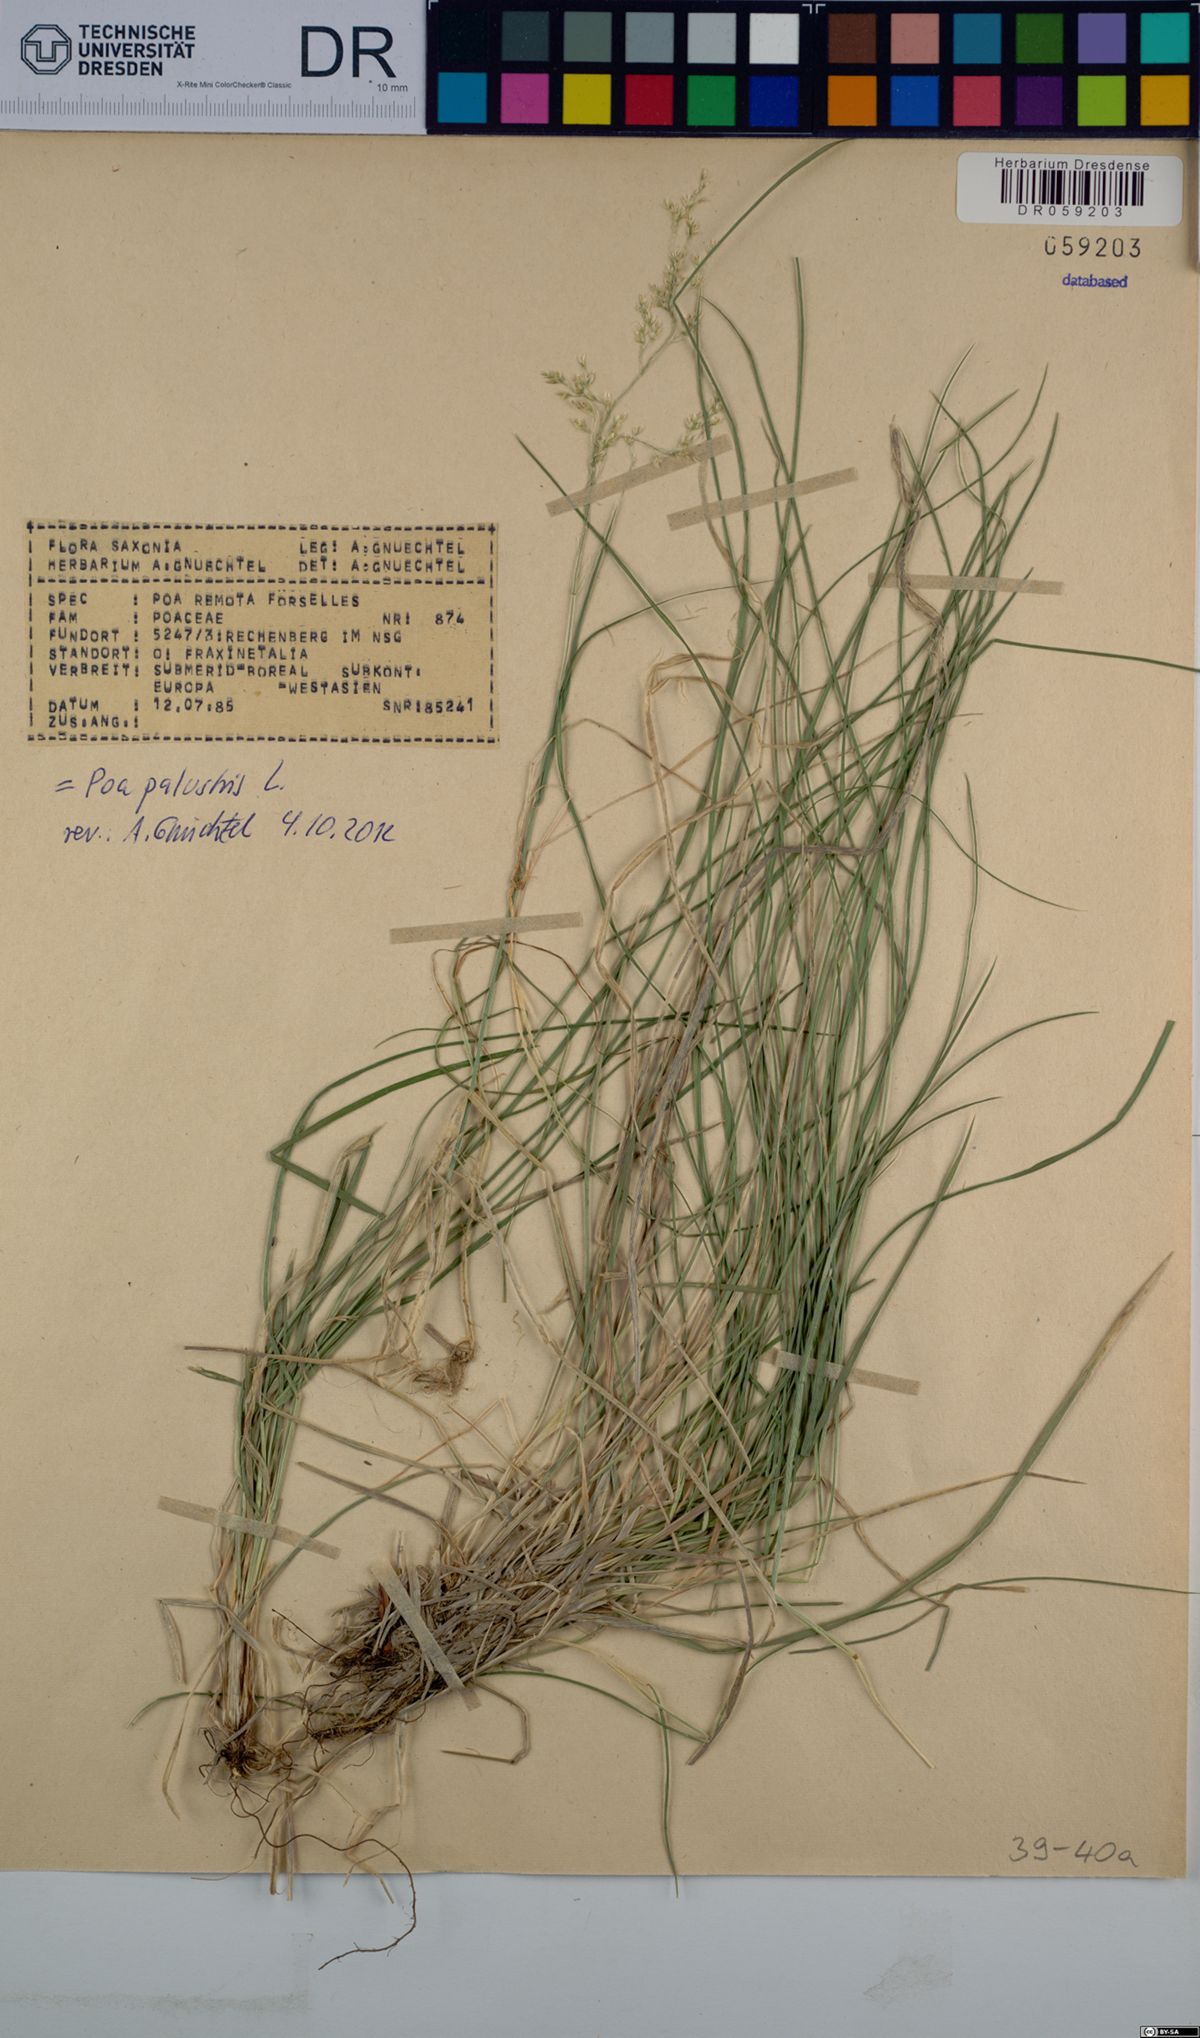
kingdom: Plantae
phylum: Tracheophyta
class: Liliopsida
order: Poales
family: Poaceae
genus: Poa
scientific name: Poa palustris
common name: Swamp meadow-grass
